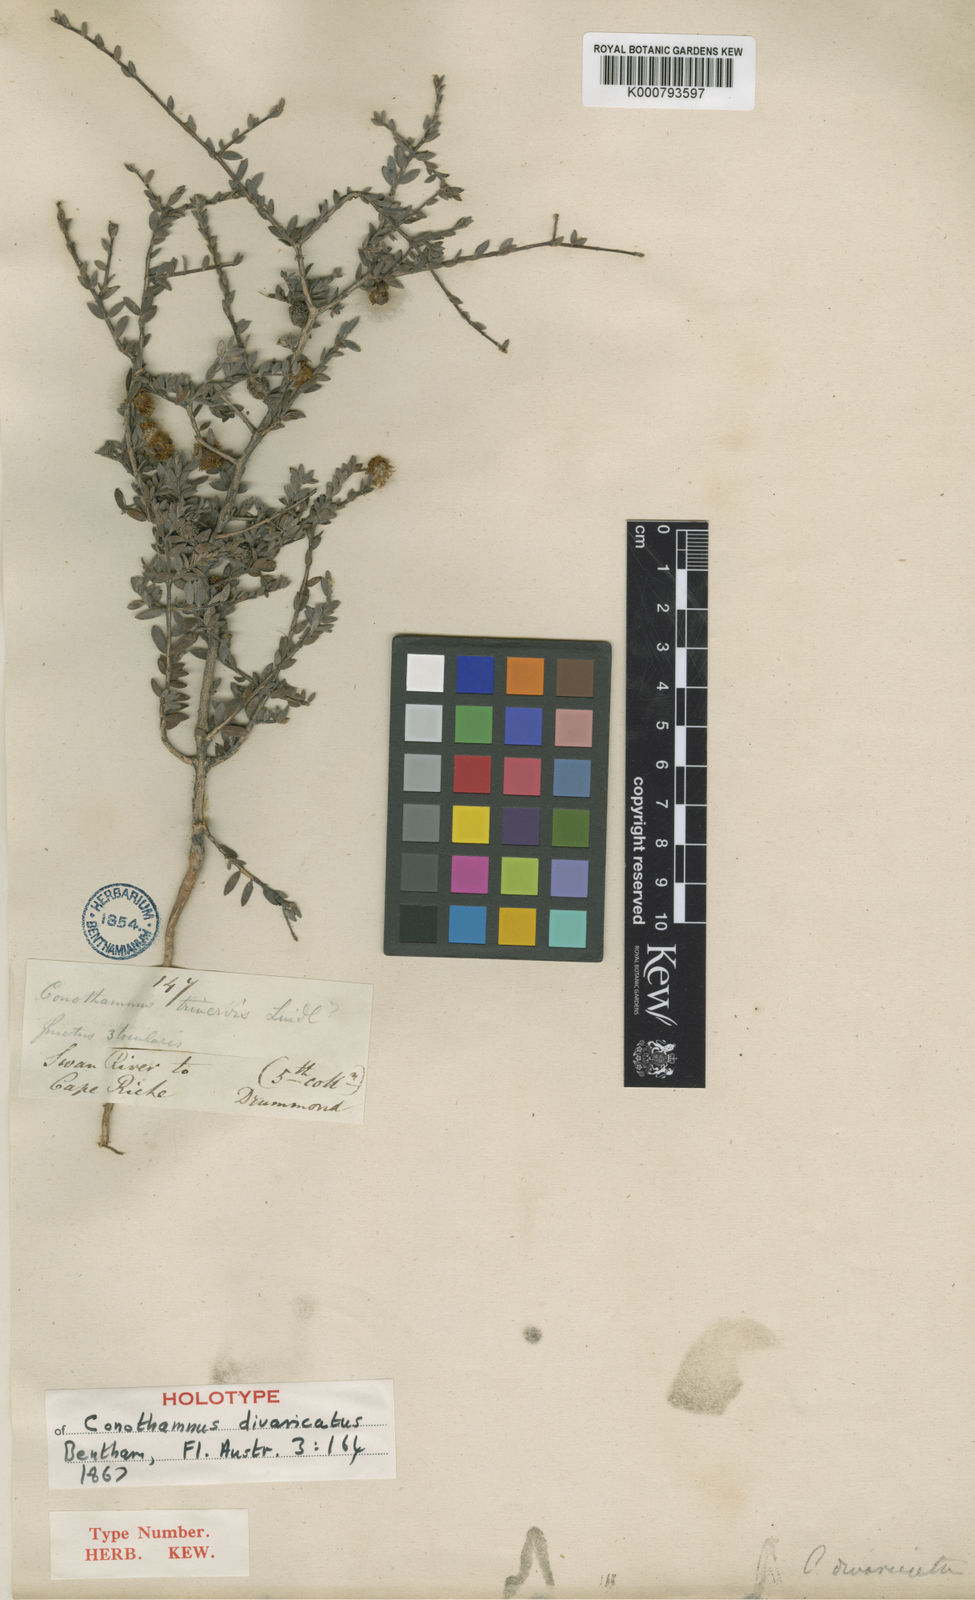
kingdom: Plantae
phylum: Tracheophyta
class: Magnoliopsida
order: Myrtales
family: Myrtaceae
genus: Melaleuca
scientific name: Melaleuca aurea
